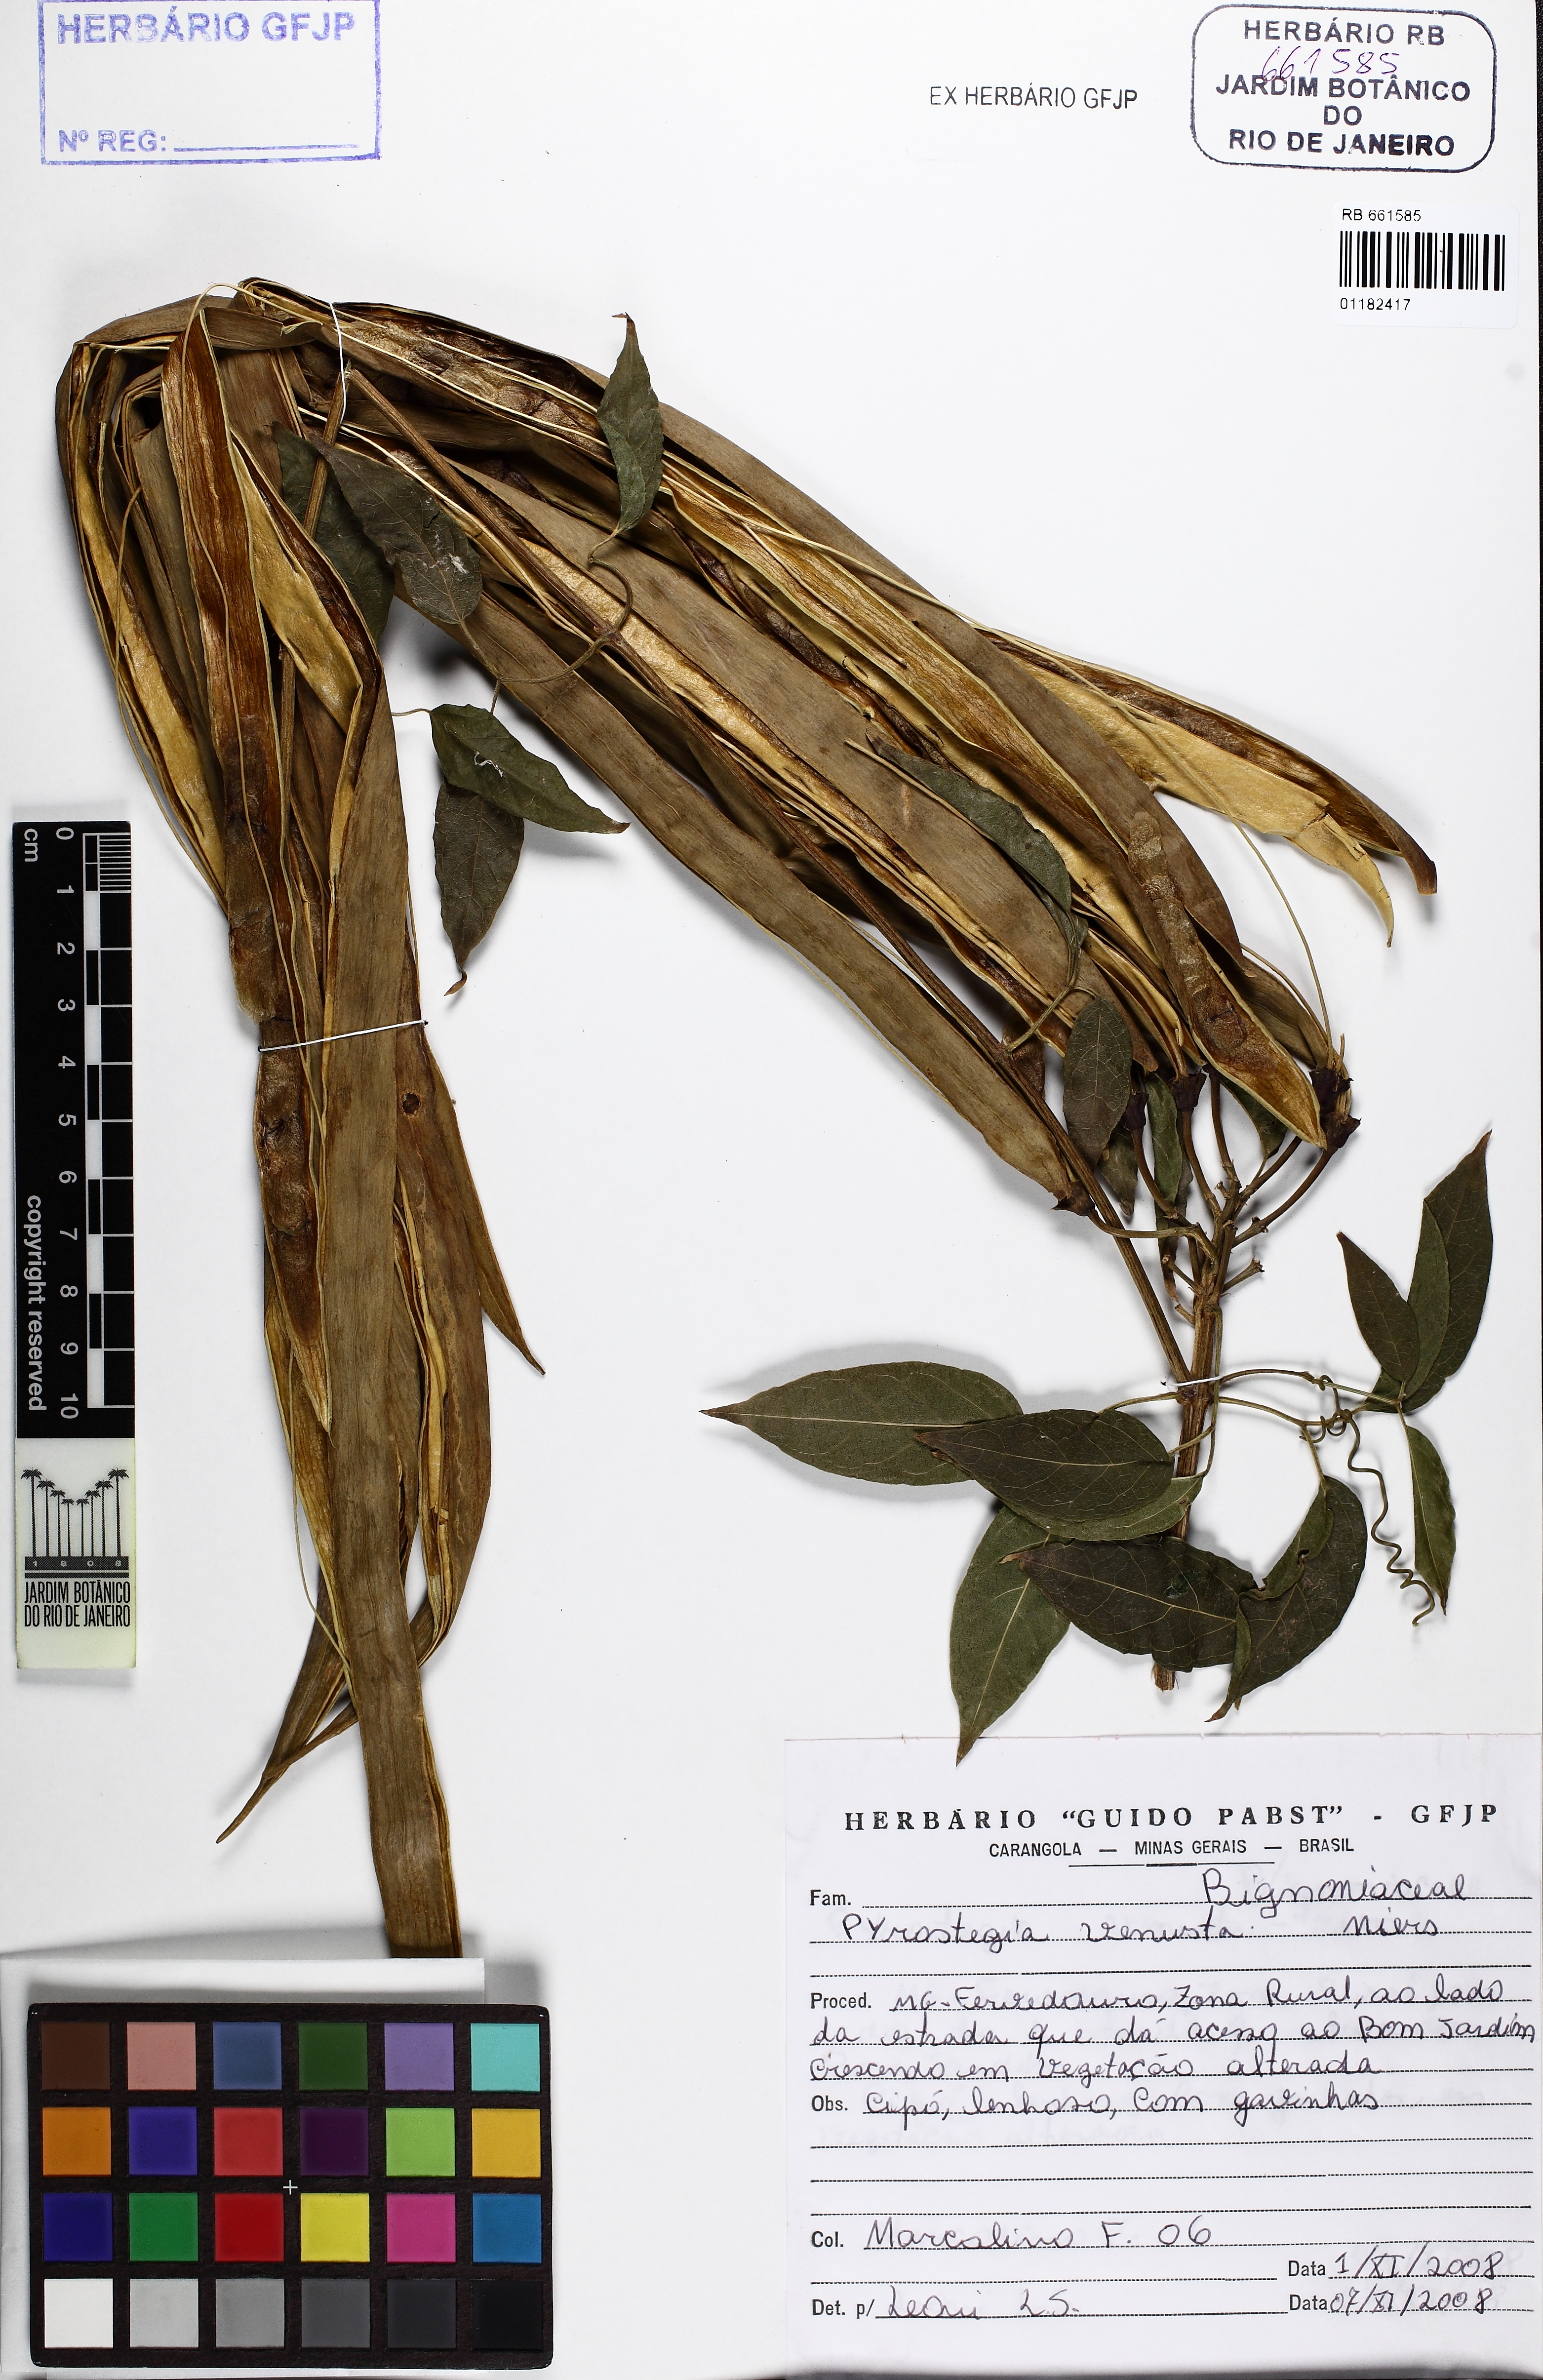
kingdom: Plantae
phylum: Tracheophyta
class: Magnoliopsida
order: Lamiales
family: Bignoniaceae
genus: Pyrostegia
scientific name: Pyrostegia venusta
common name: Flamevine
